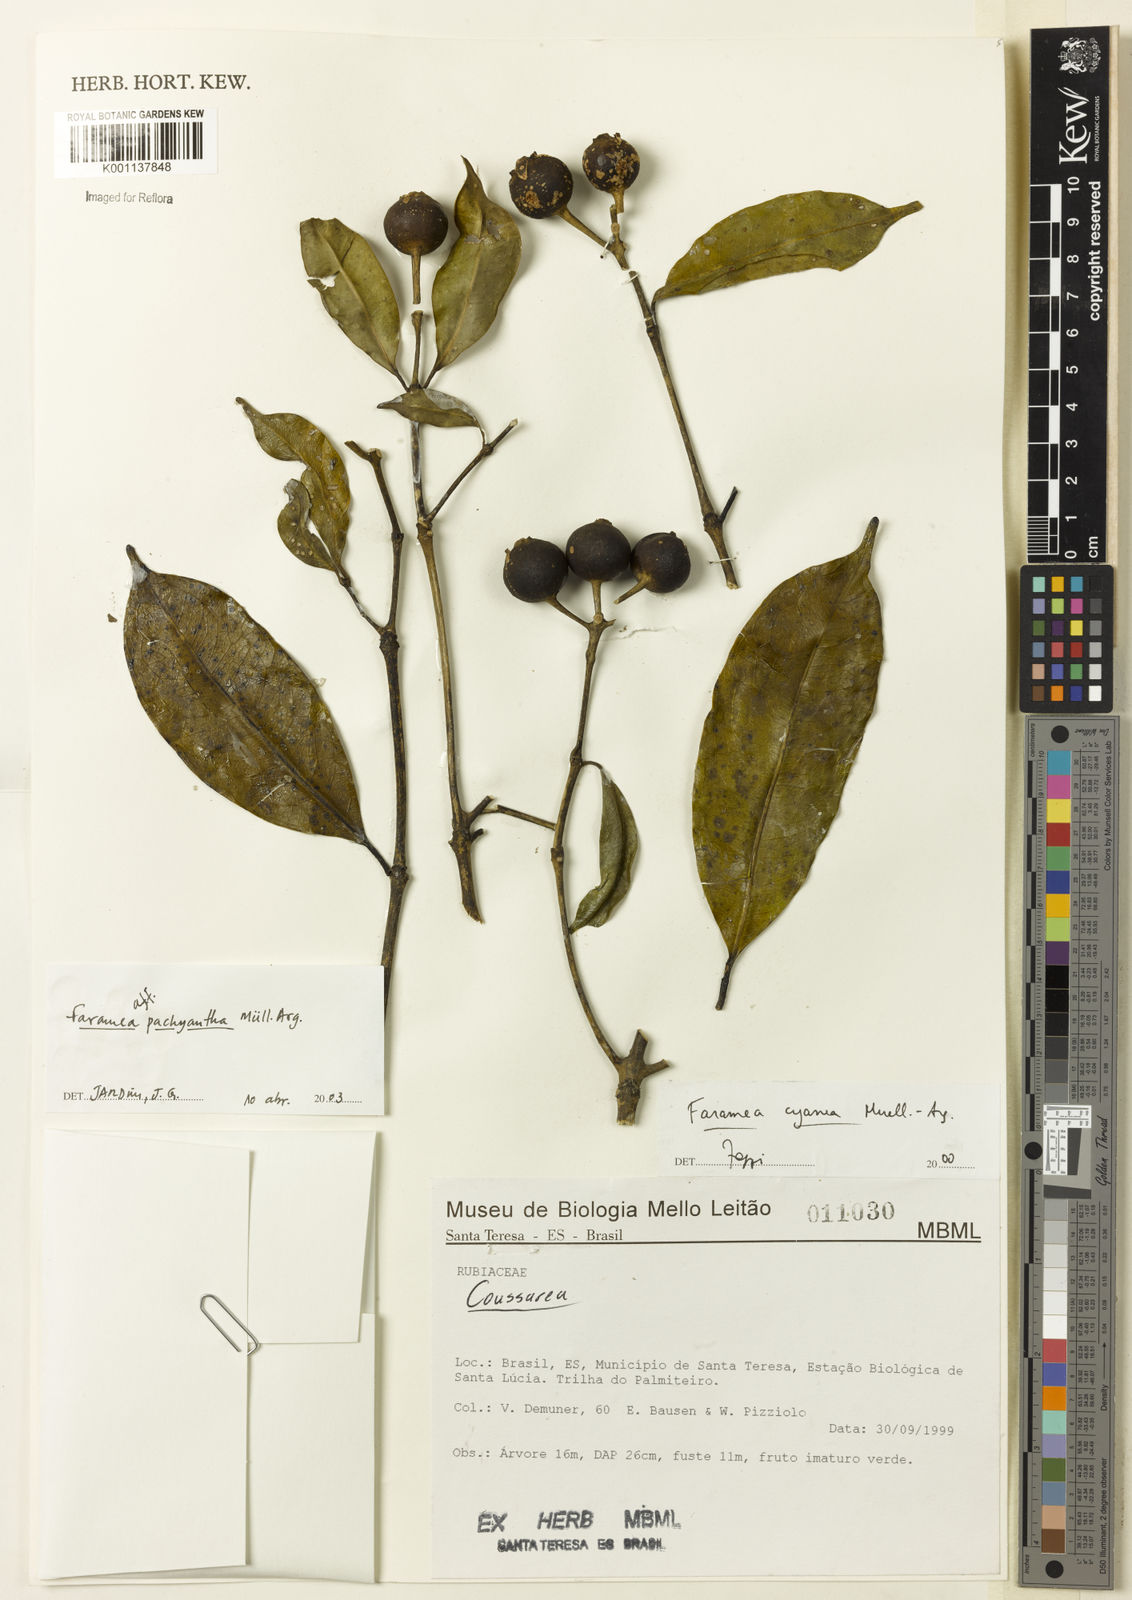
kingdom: Plantae
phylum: Tracheophyta
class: Magnoliopsida
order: Gentianales
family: Rubiaceae
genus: Faramea
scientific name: Faramea
